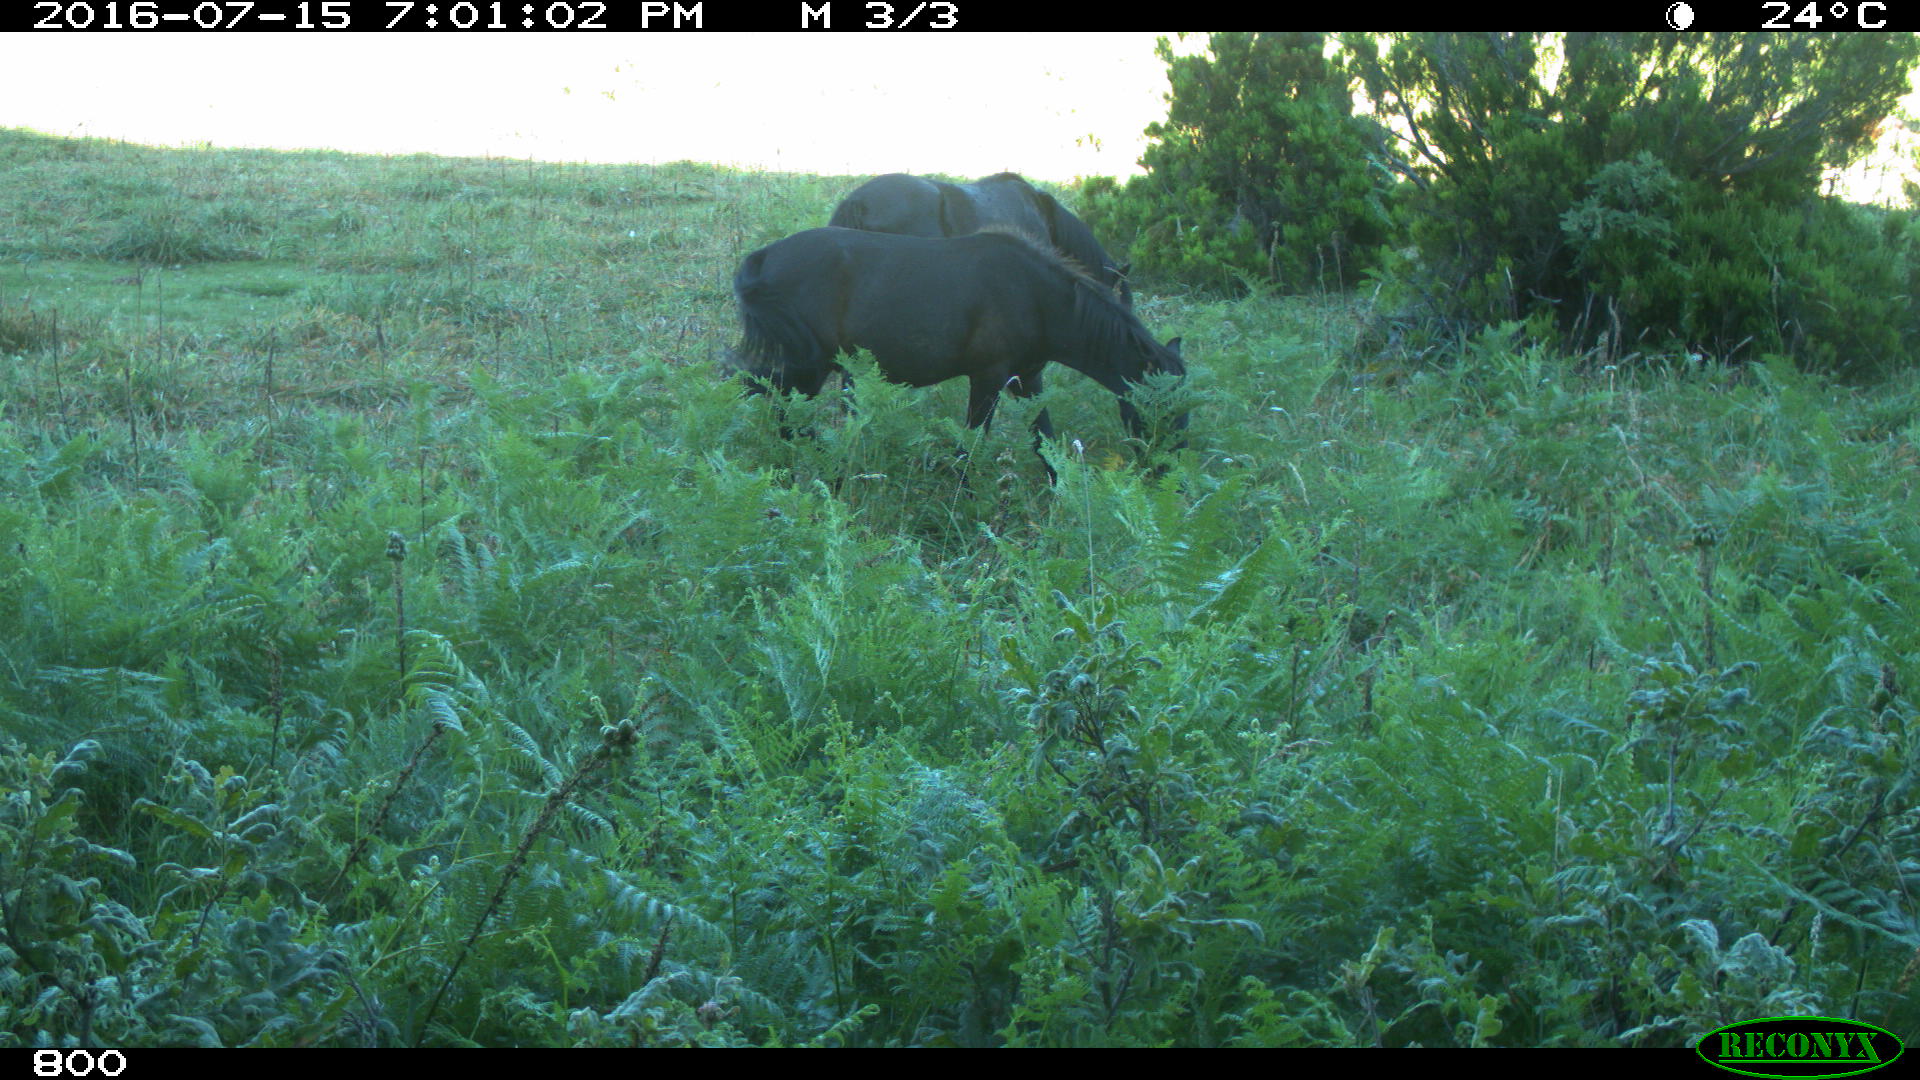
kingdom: Animalia
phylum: Chordata
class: Mammalia
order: Perissodactyla
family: Equidae
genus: Equus
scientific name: Equus caballus
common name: Horse
